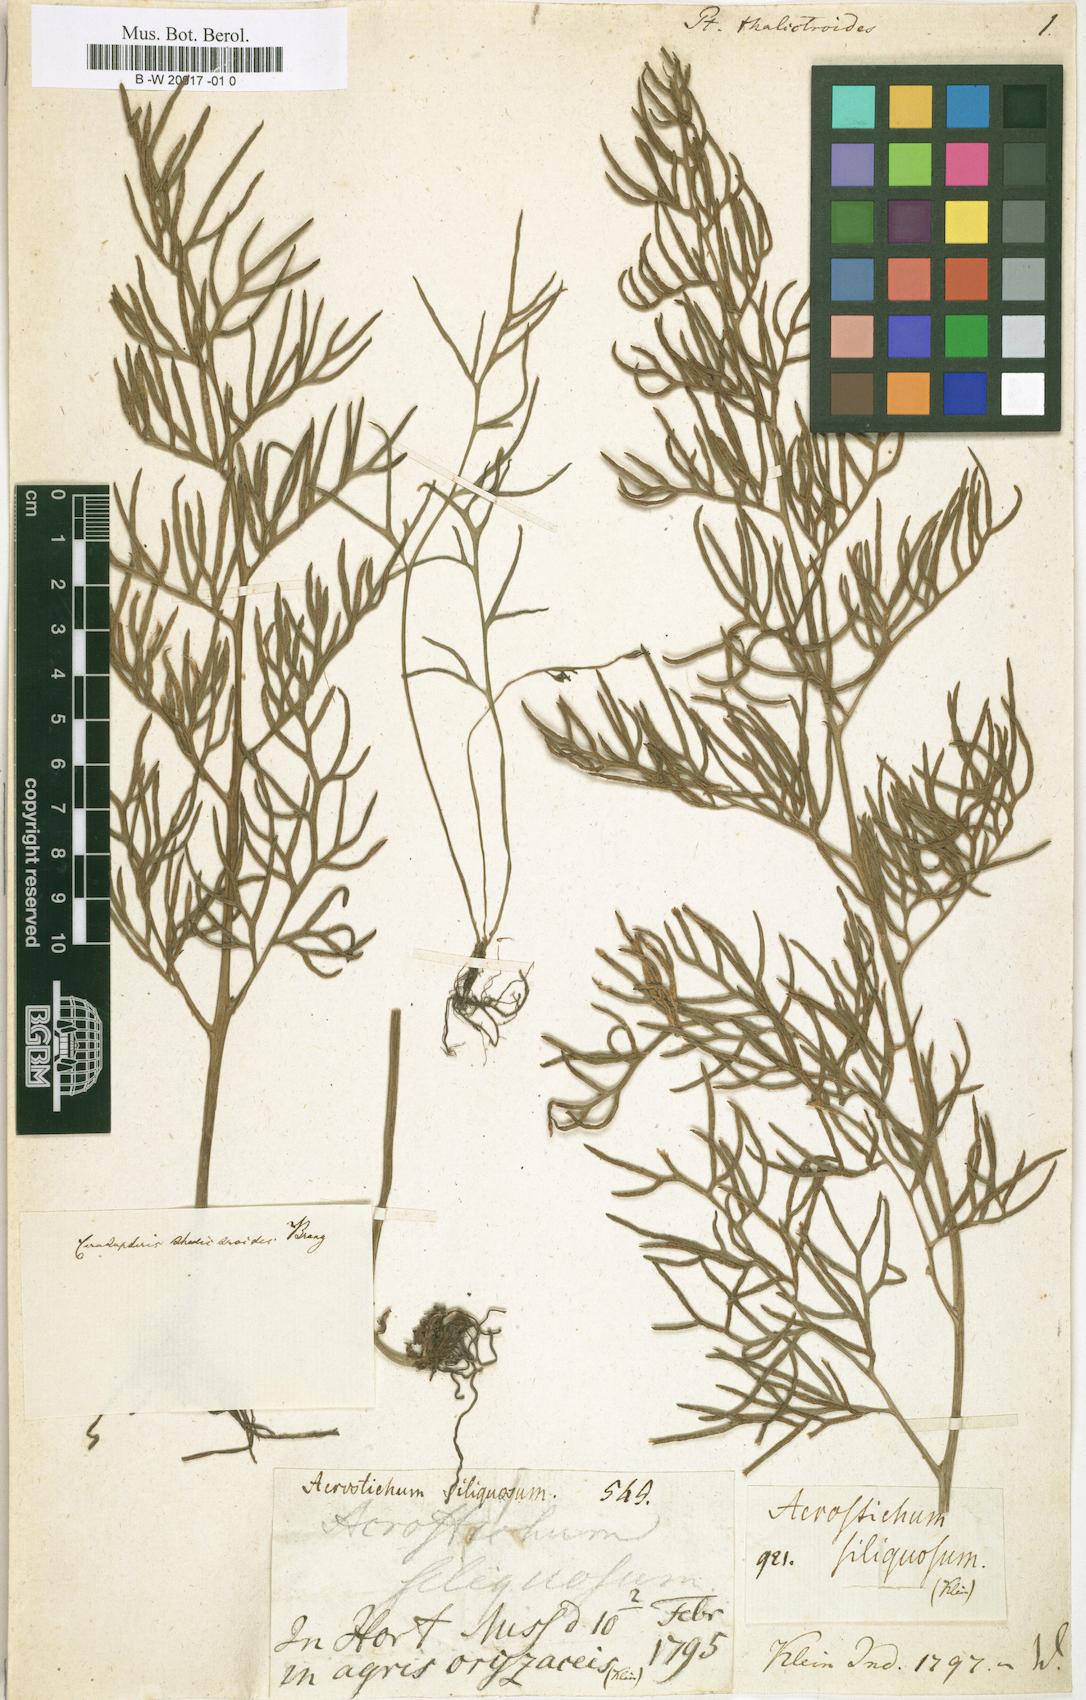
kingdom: Plantae
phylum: Tracheophyta
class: Polypodiopsida
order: Polypodiales
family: Pteridaceae
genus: Ceratopteris
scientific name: Ceratopteris thalictroides
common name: Water fern
